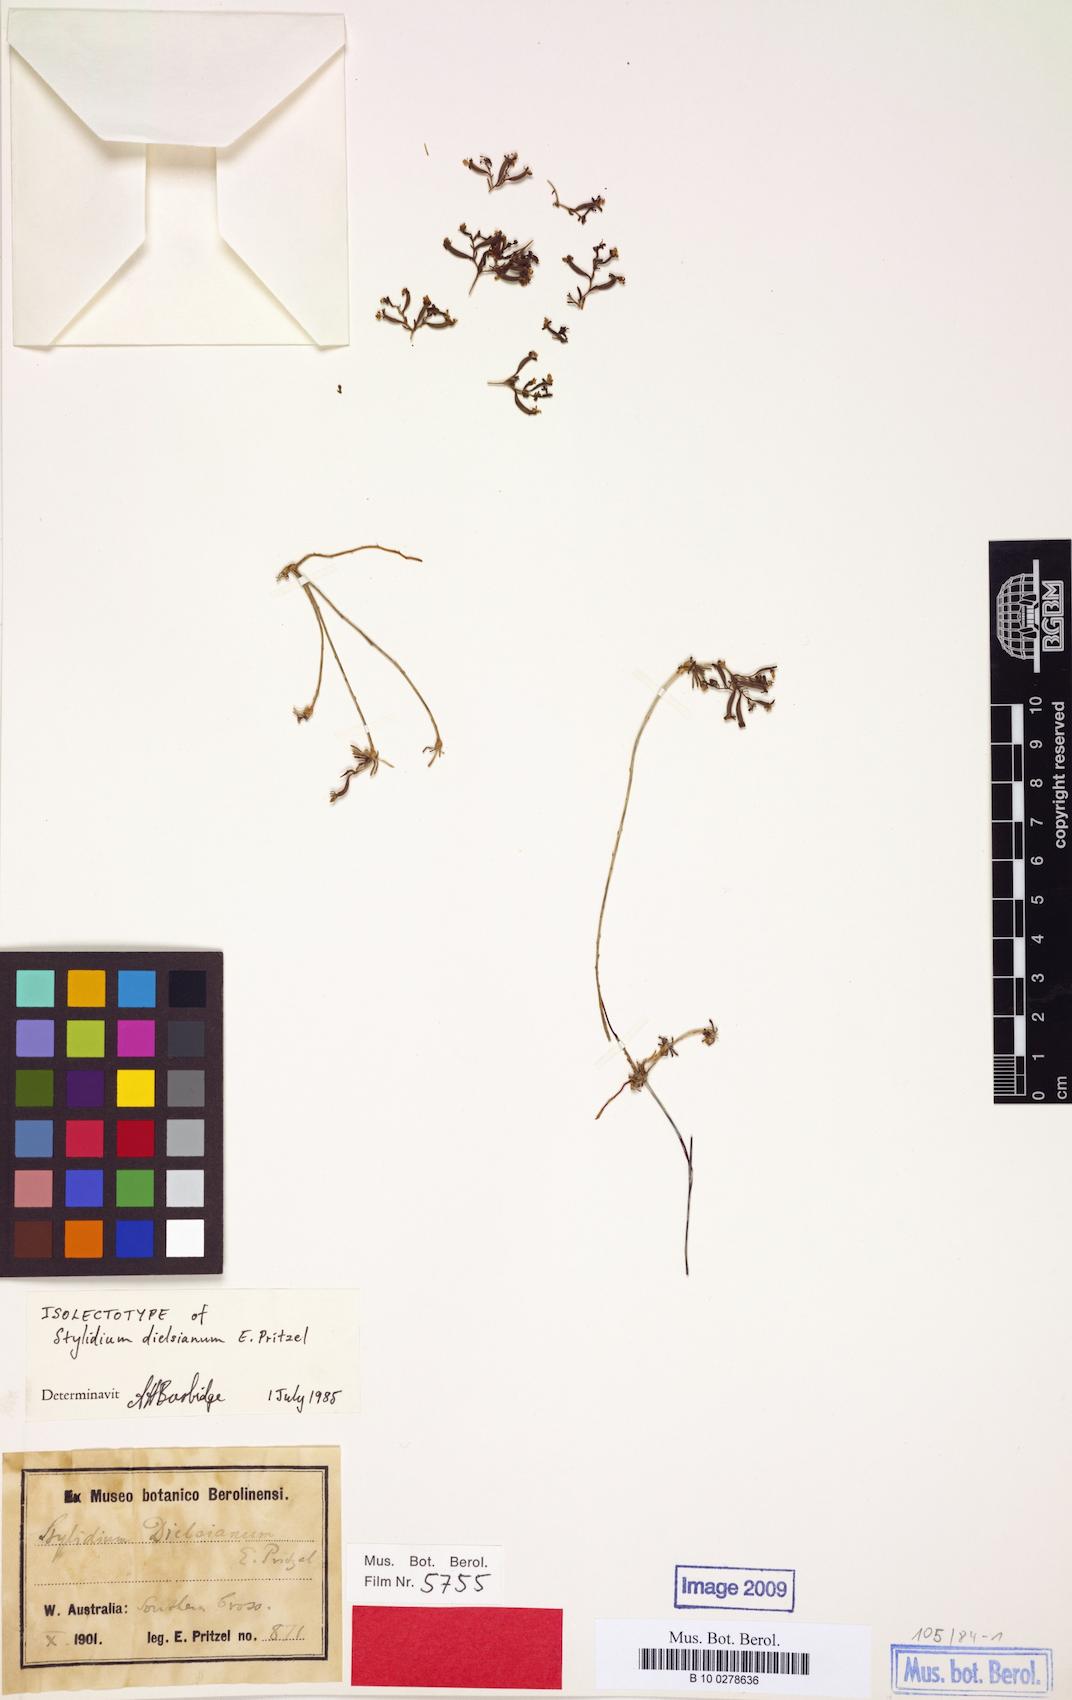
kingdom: Plantae
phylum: Tracheophyta
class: Magnoliopsida
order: Asterales
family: Stylidiaceae
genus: Stylidium
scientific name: Stylidium dielsianum
